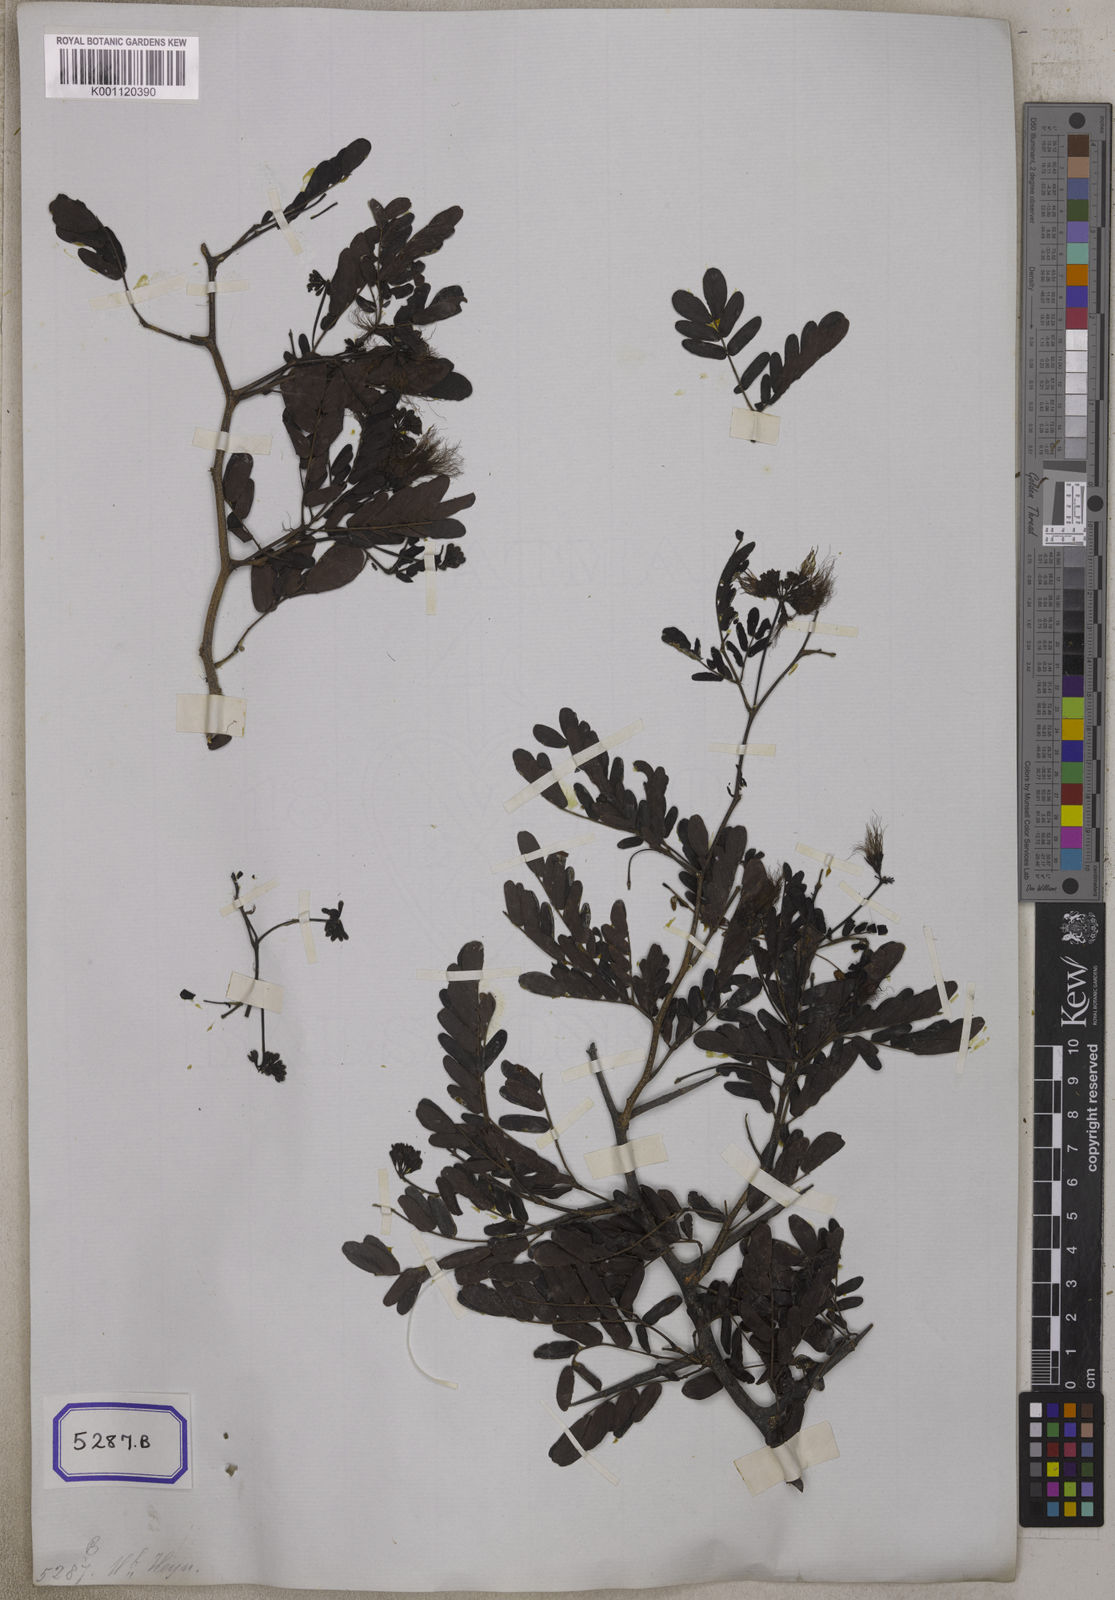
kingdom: Plantae
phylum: Tracheophyta
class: Magnoliopsida
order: Fabales
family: Fabaceae
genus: Cathormion
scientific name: Cathormion umbellatum
